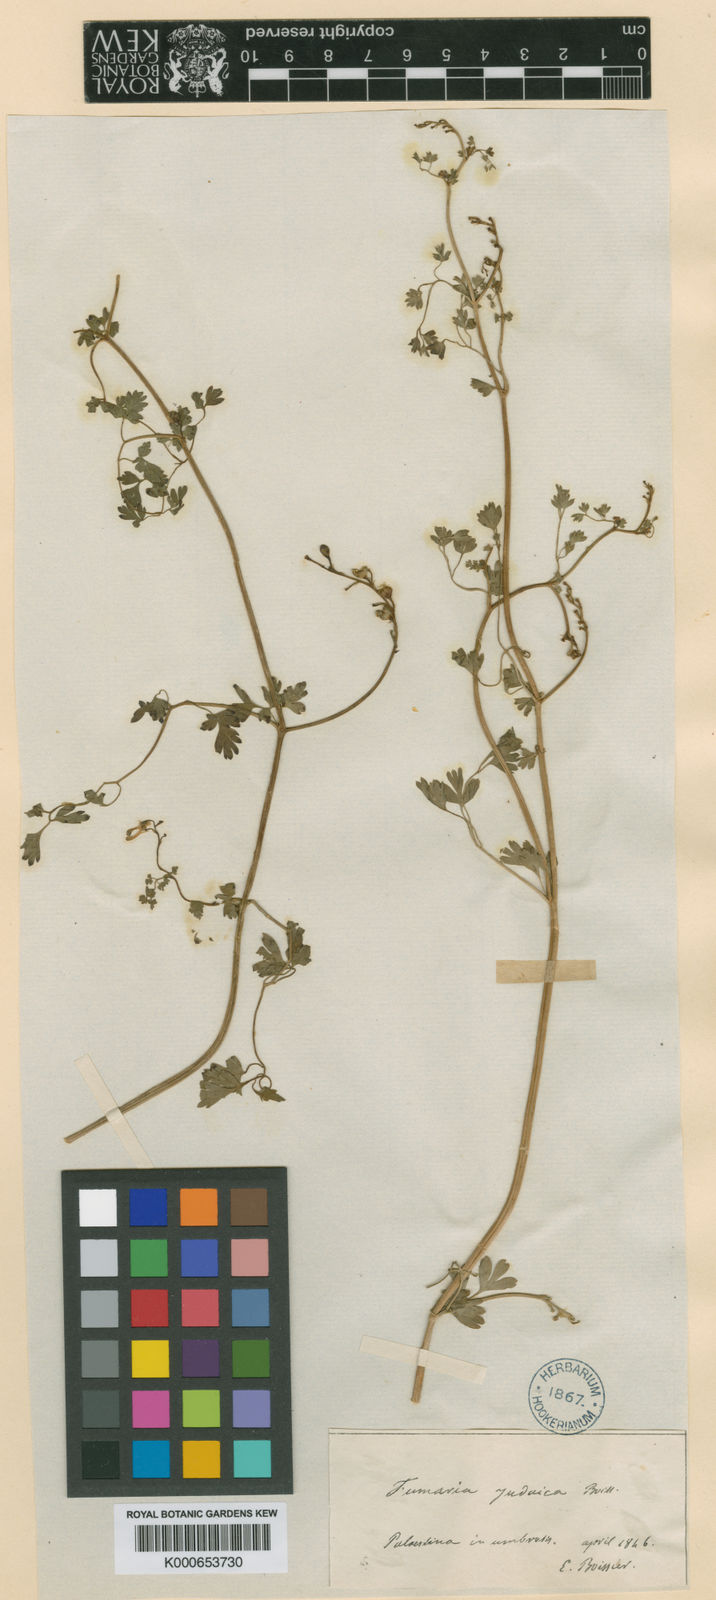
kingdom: Plantae
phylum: Tracheophyta
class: Magnoliopsida
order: Ranunculales
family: Papaveraceae
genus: Fumaria
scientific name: Fumaria judaica
